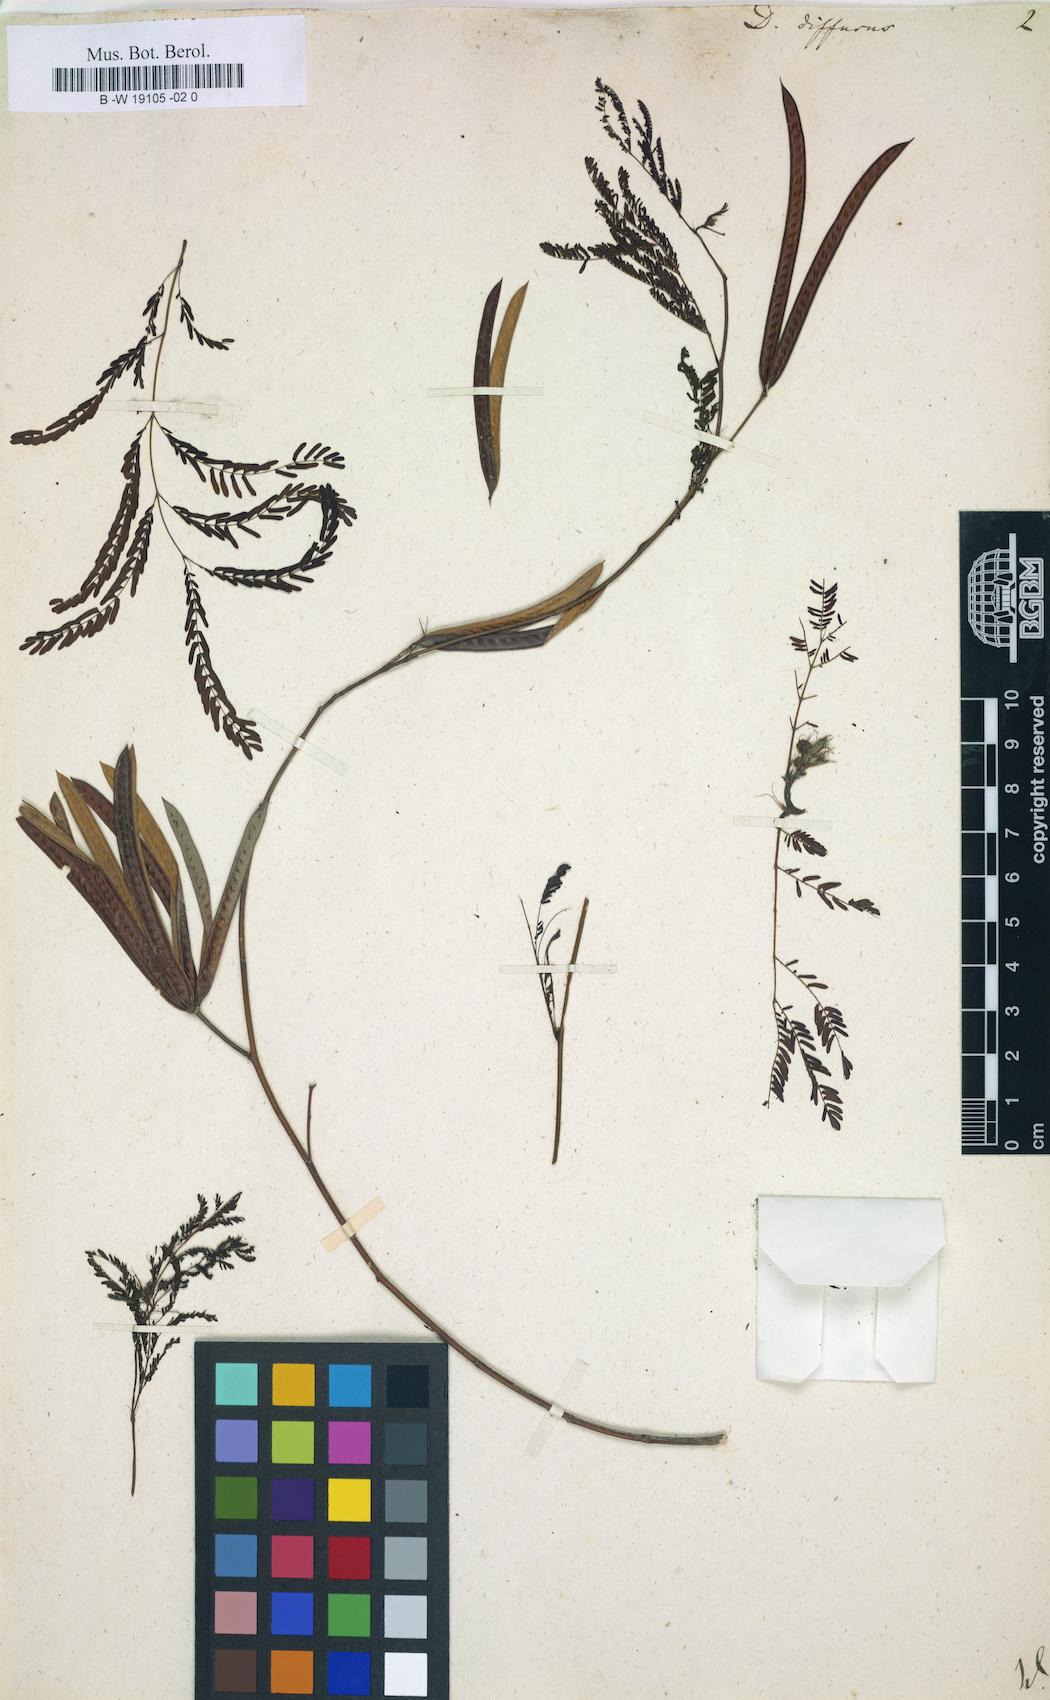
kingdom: Plantae
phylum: Tracheophyta
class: Magnoliopsida
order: Fabales
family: Fabaceae
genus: Desmanthus
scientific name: Desmanthus pernambucanus
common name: Pigeon bundleflower
